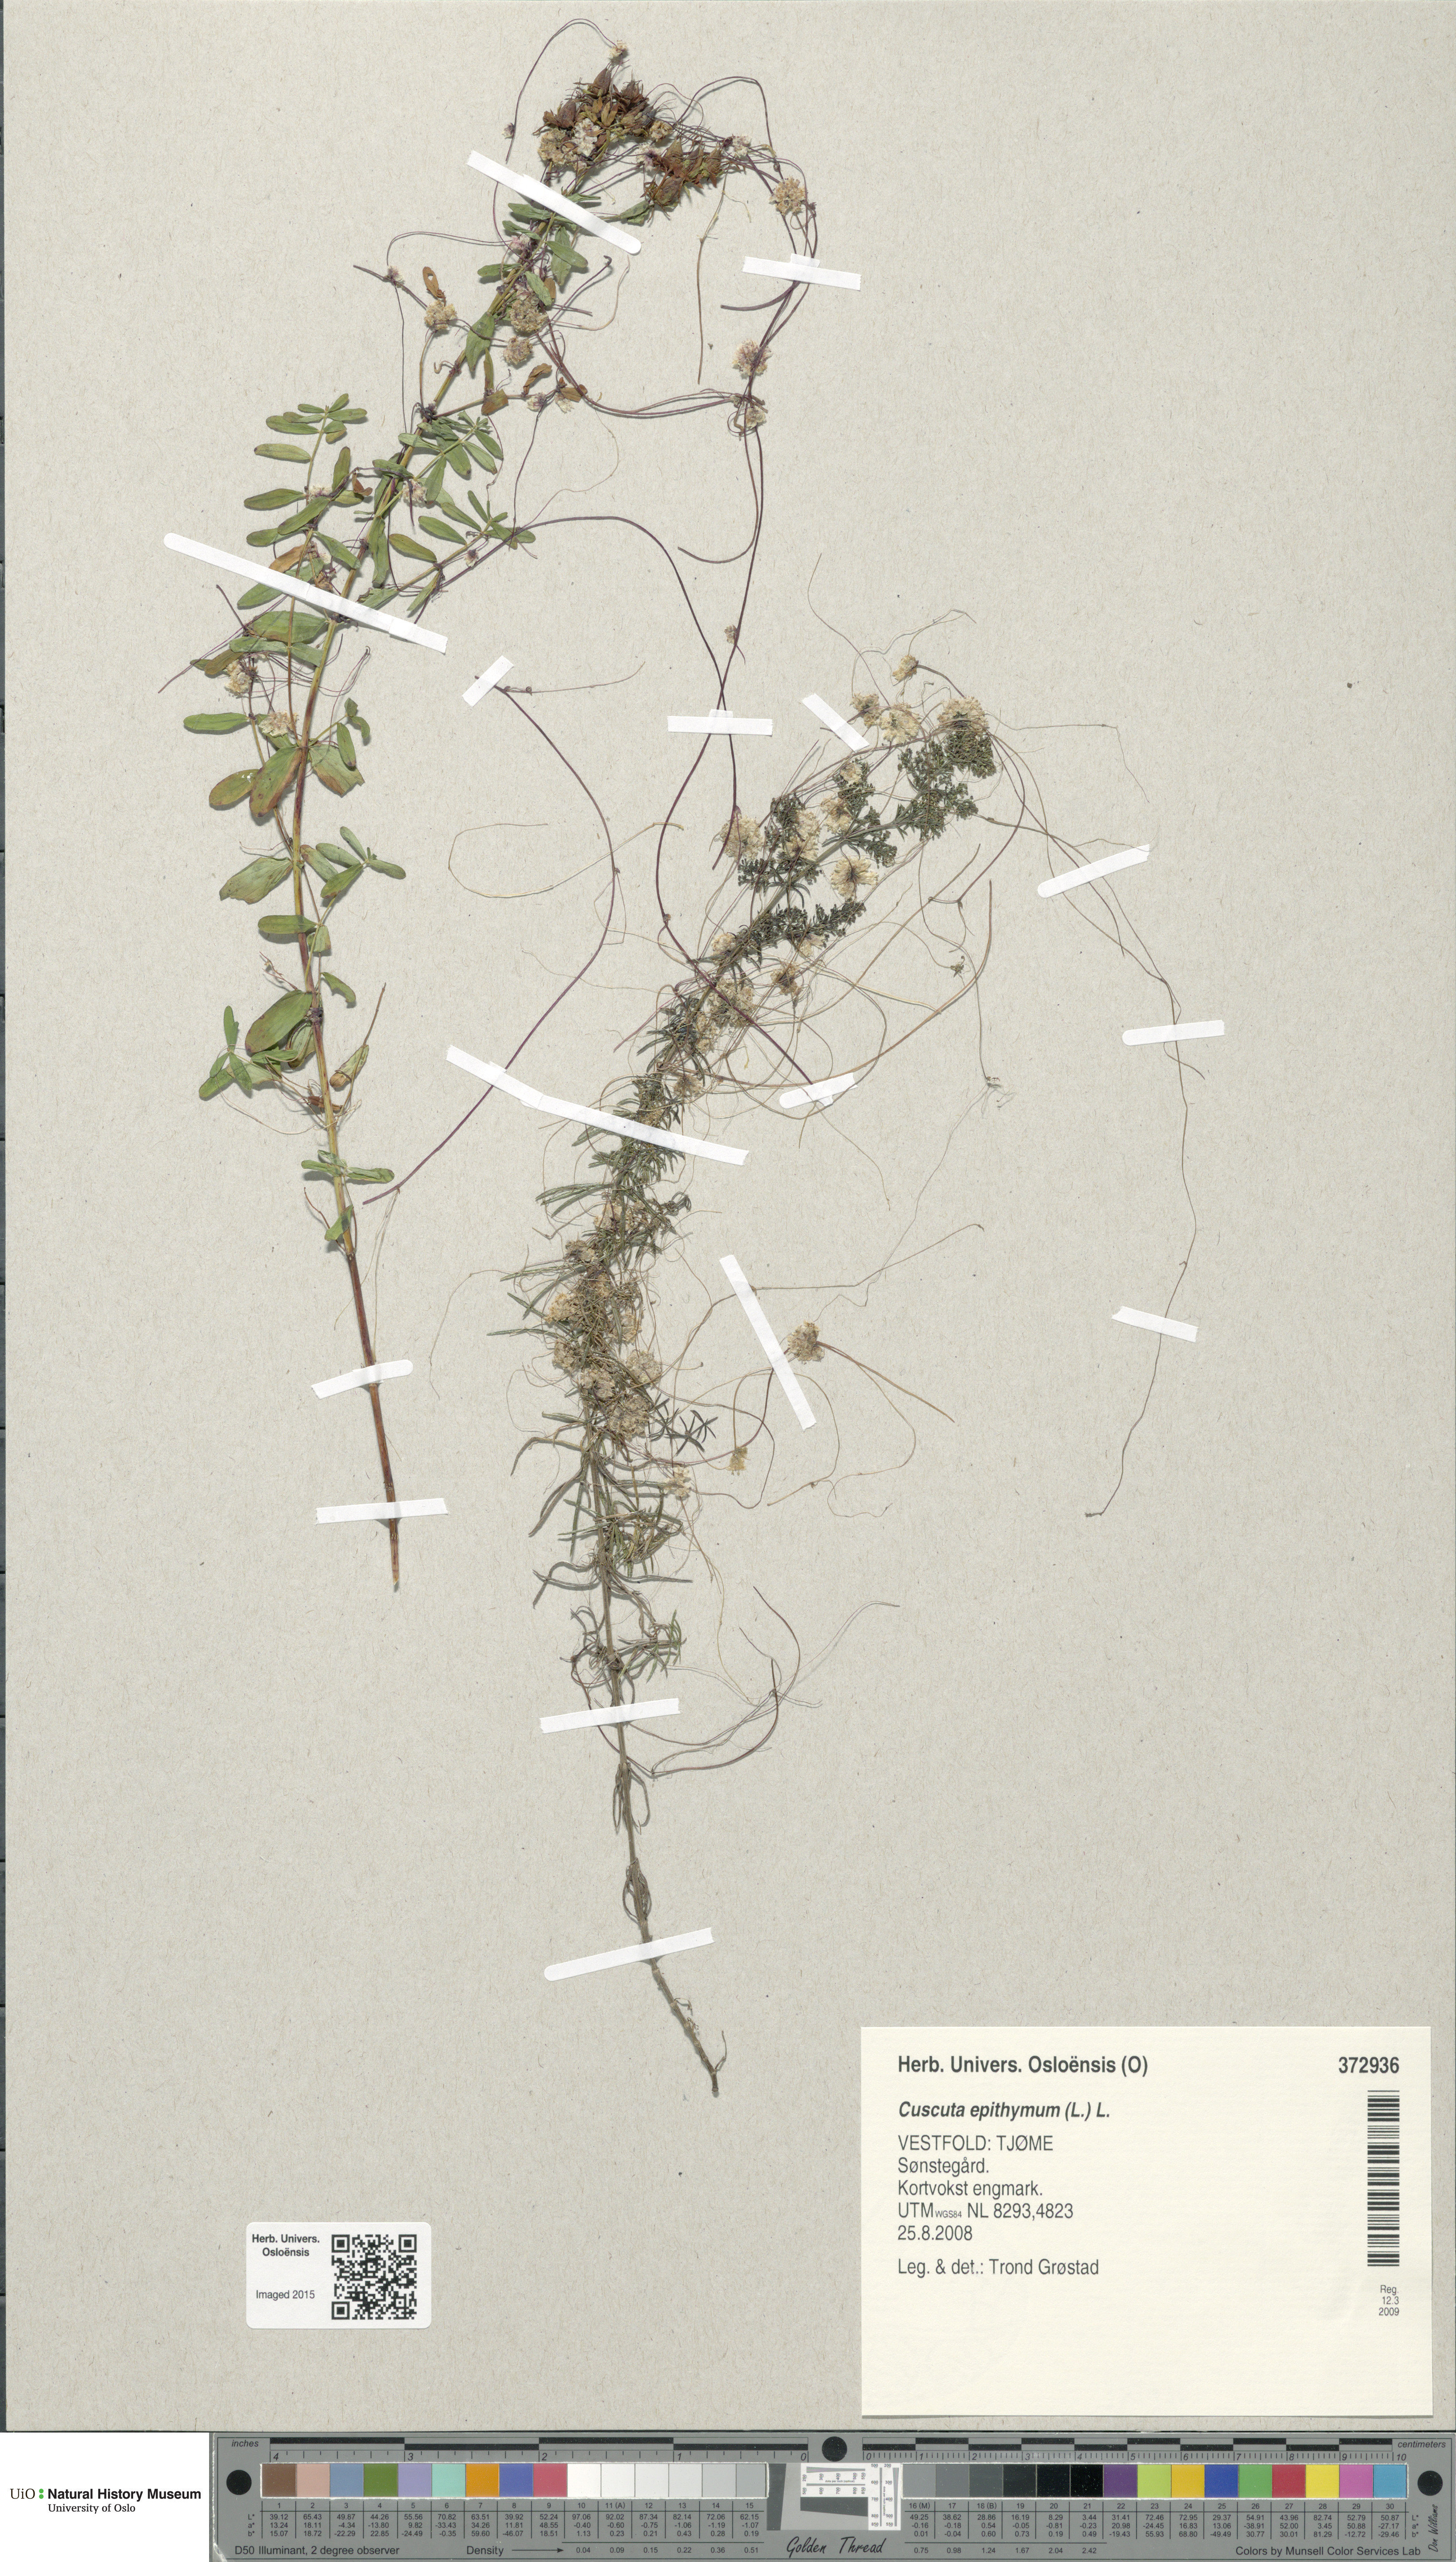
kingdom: Plantae
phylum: Tracheophyta
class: Magnoliopsida
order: Solanales
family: Convolvulaceae
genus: Cuscuta
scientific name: Cuscuta epithymum
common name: Clover dodder
